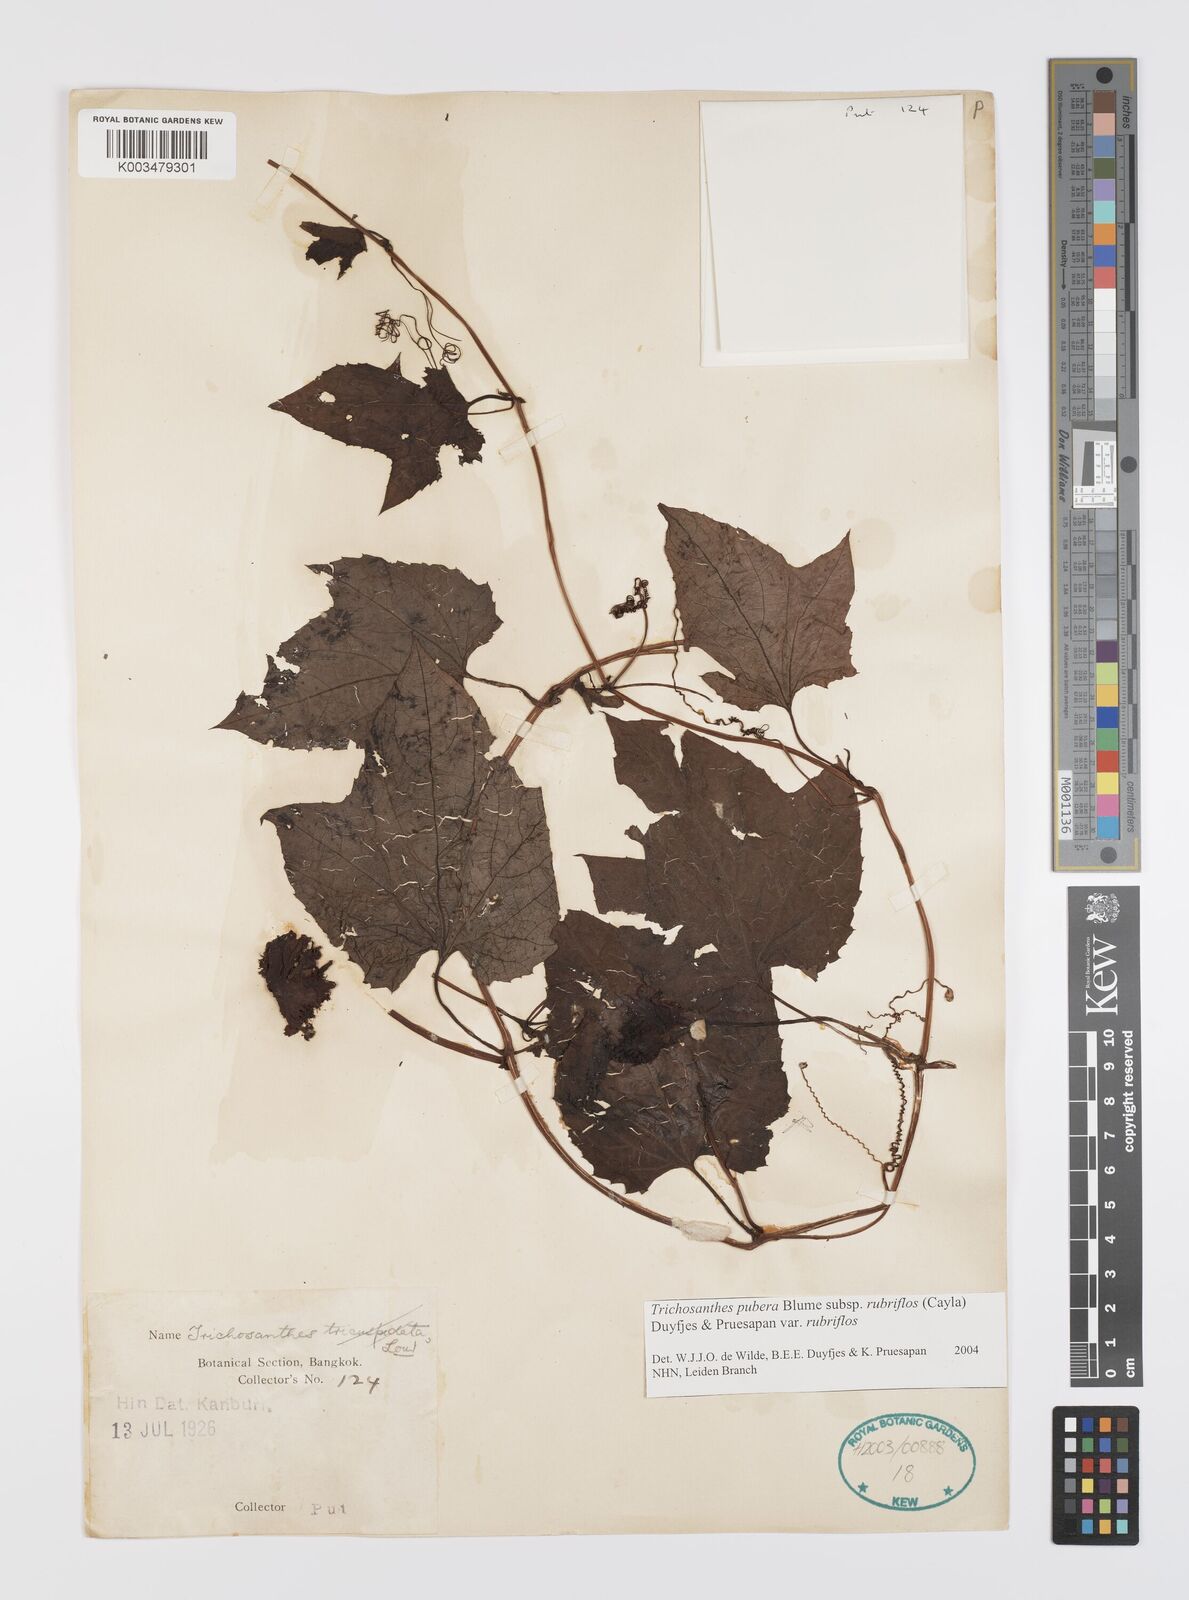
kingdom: Plantae
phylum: Tracheophyta
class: Magnoliopsida
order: Cucurbitales
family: Cucurbitaceae
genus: Trichosanthes
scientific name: Trichosanthes rubriflos
